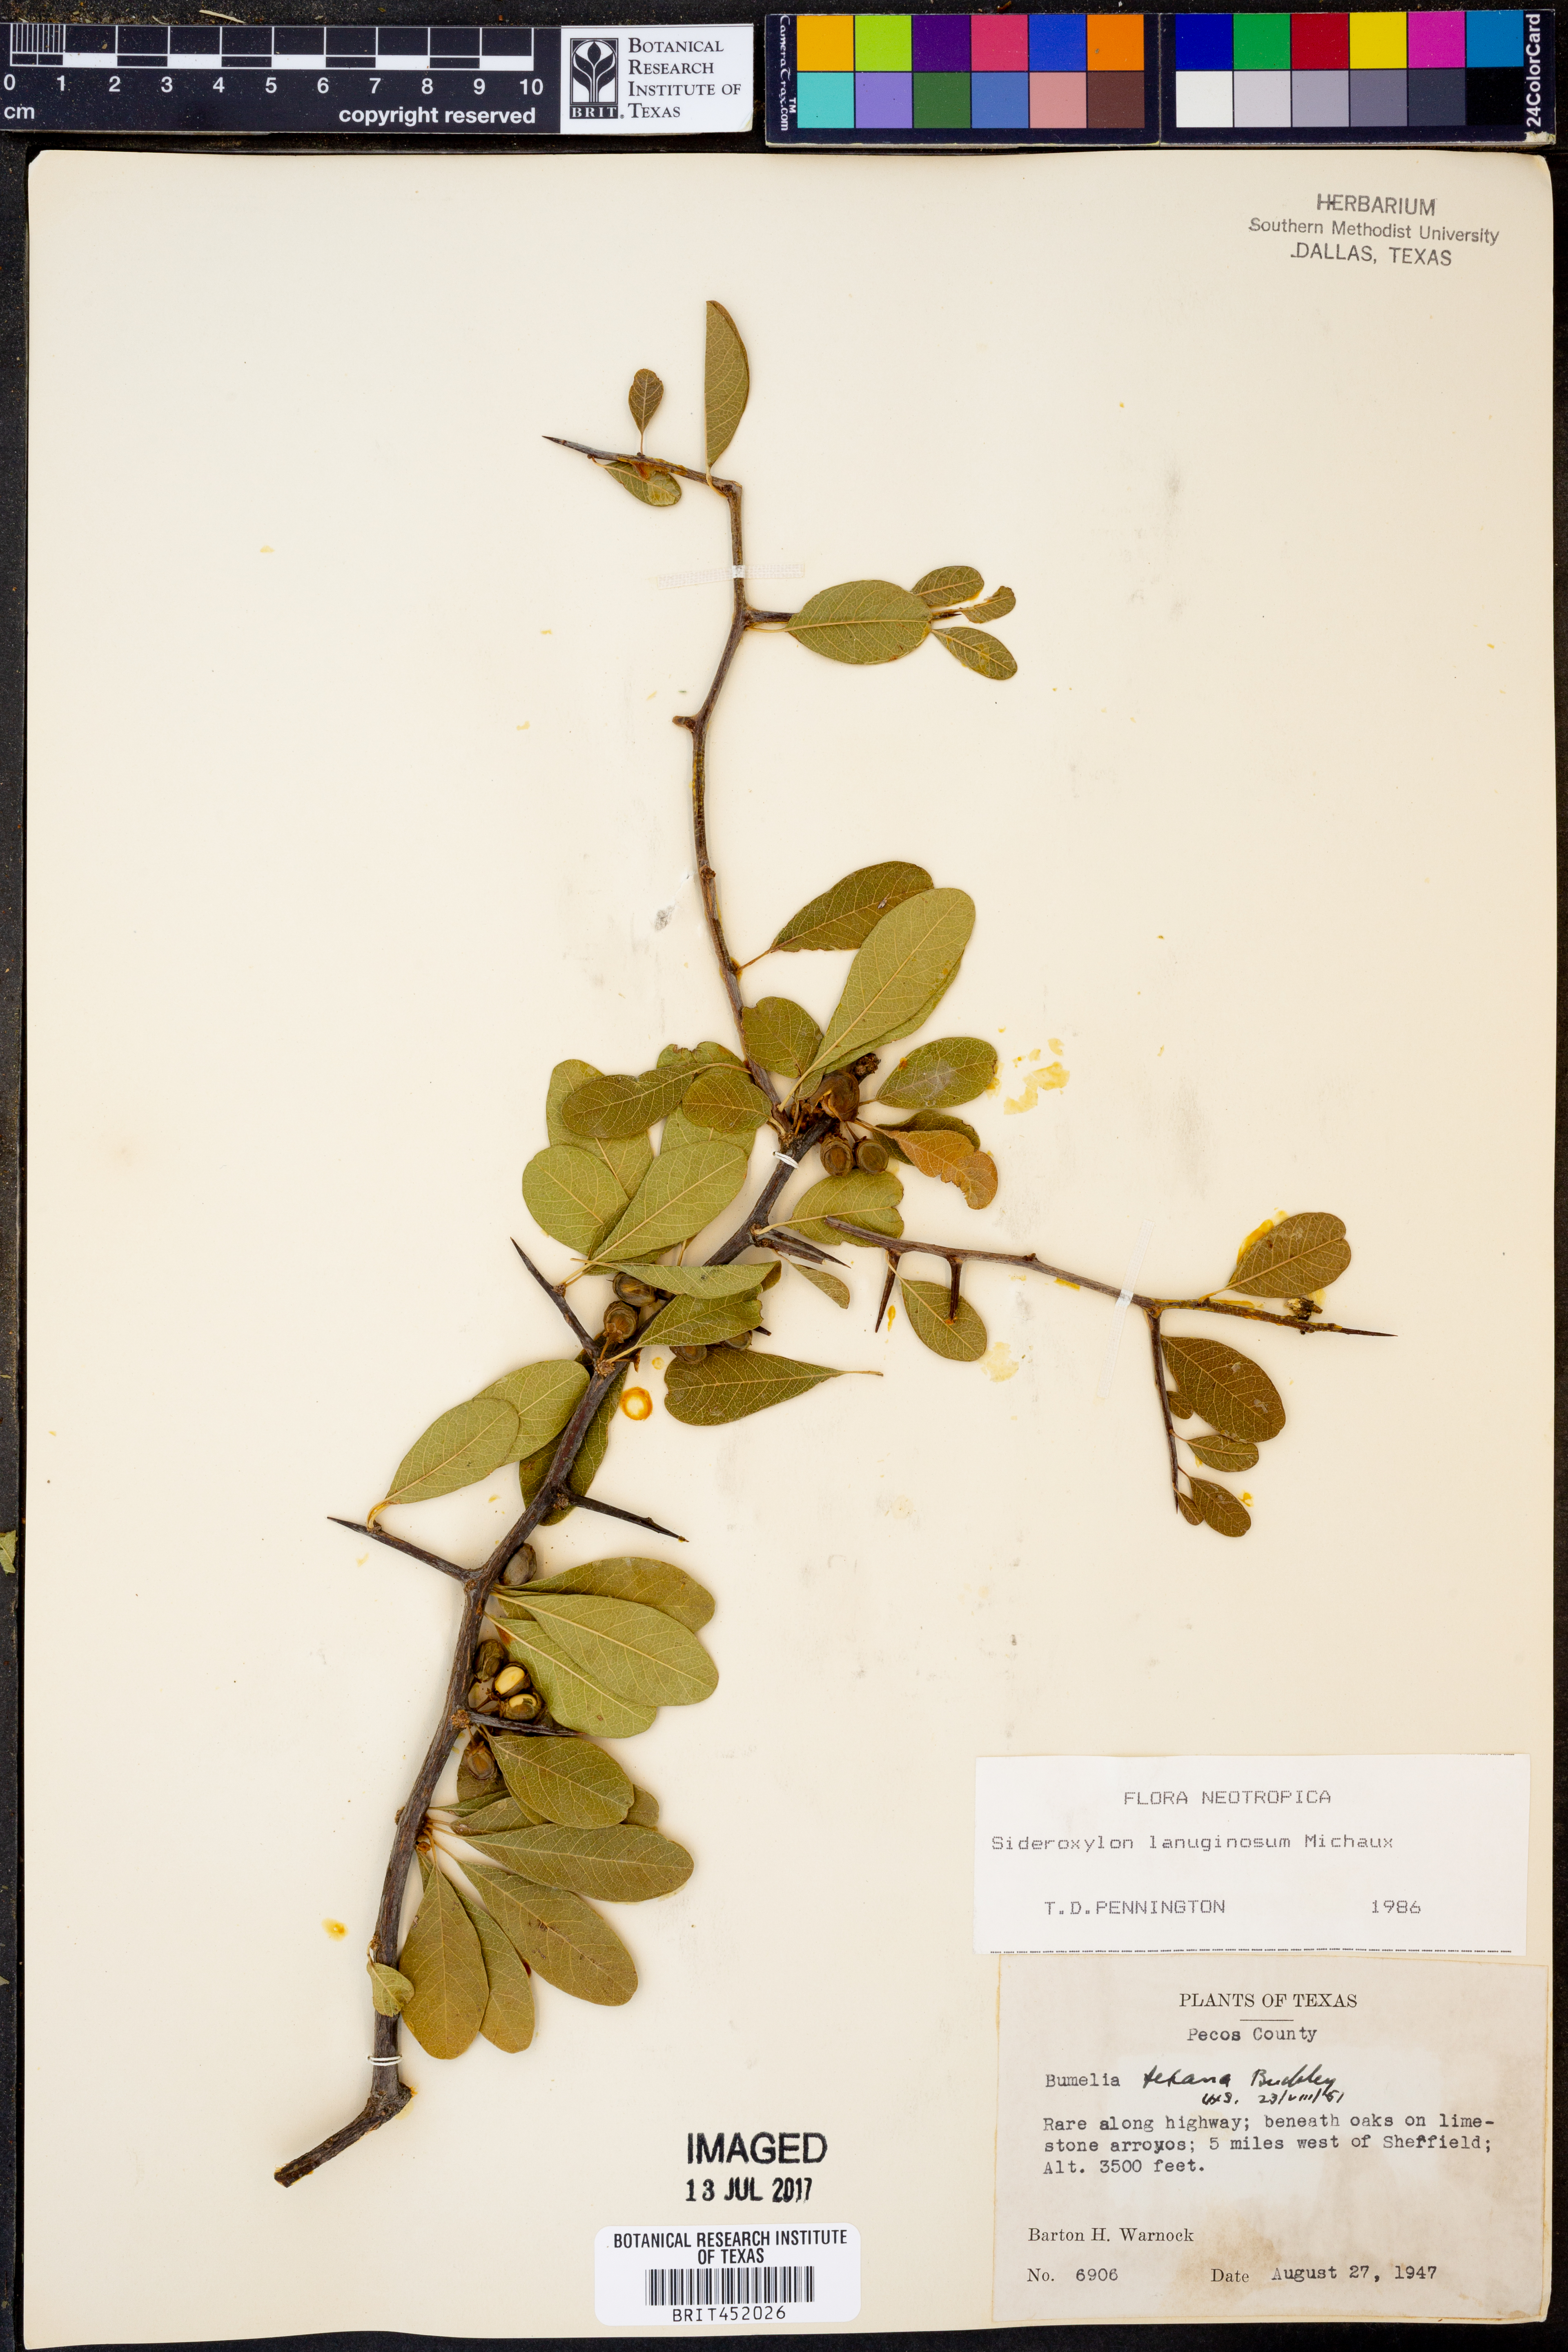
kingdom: Plantae
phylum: Tracheophyta
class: Magnoliopsida
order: Ericales
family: Sapotaceae
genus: Sideroxylon
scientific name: Sideroxylon lanuginosum
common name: Chittamwood
